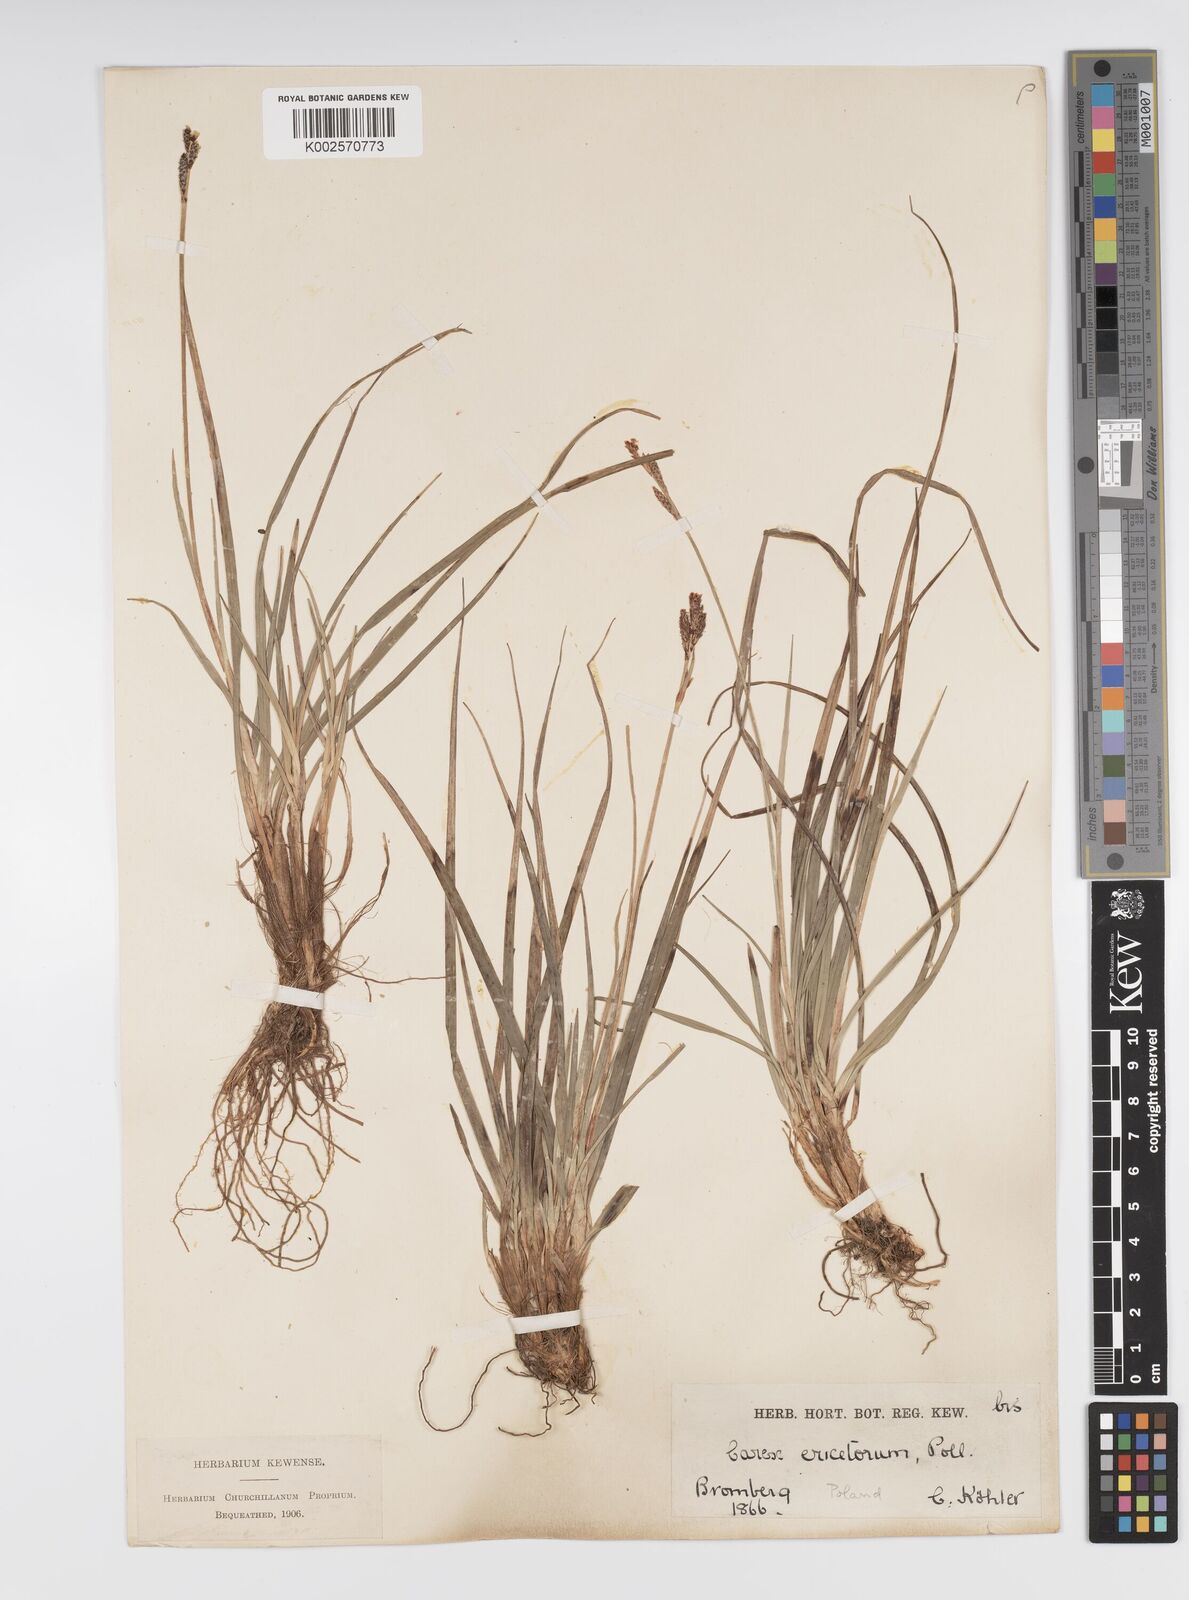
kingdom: Plantae
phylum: Tracheophyta
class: Liliopsida
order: Poales
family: Cyperaceae
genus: Carex
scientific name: Carex ericetorum
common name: Rare spring-sedge
